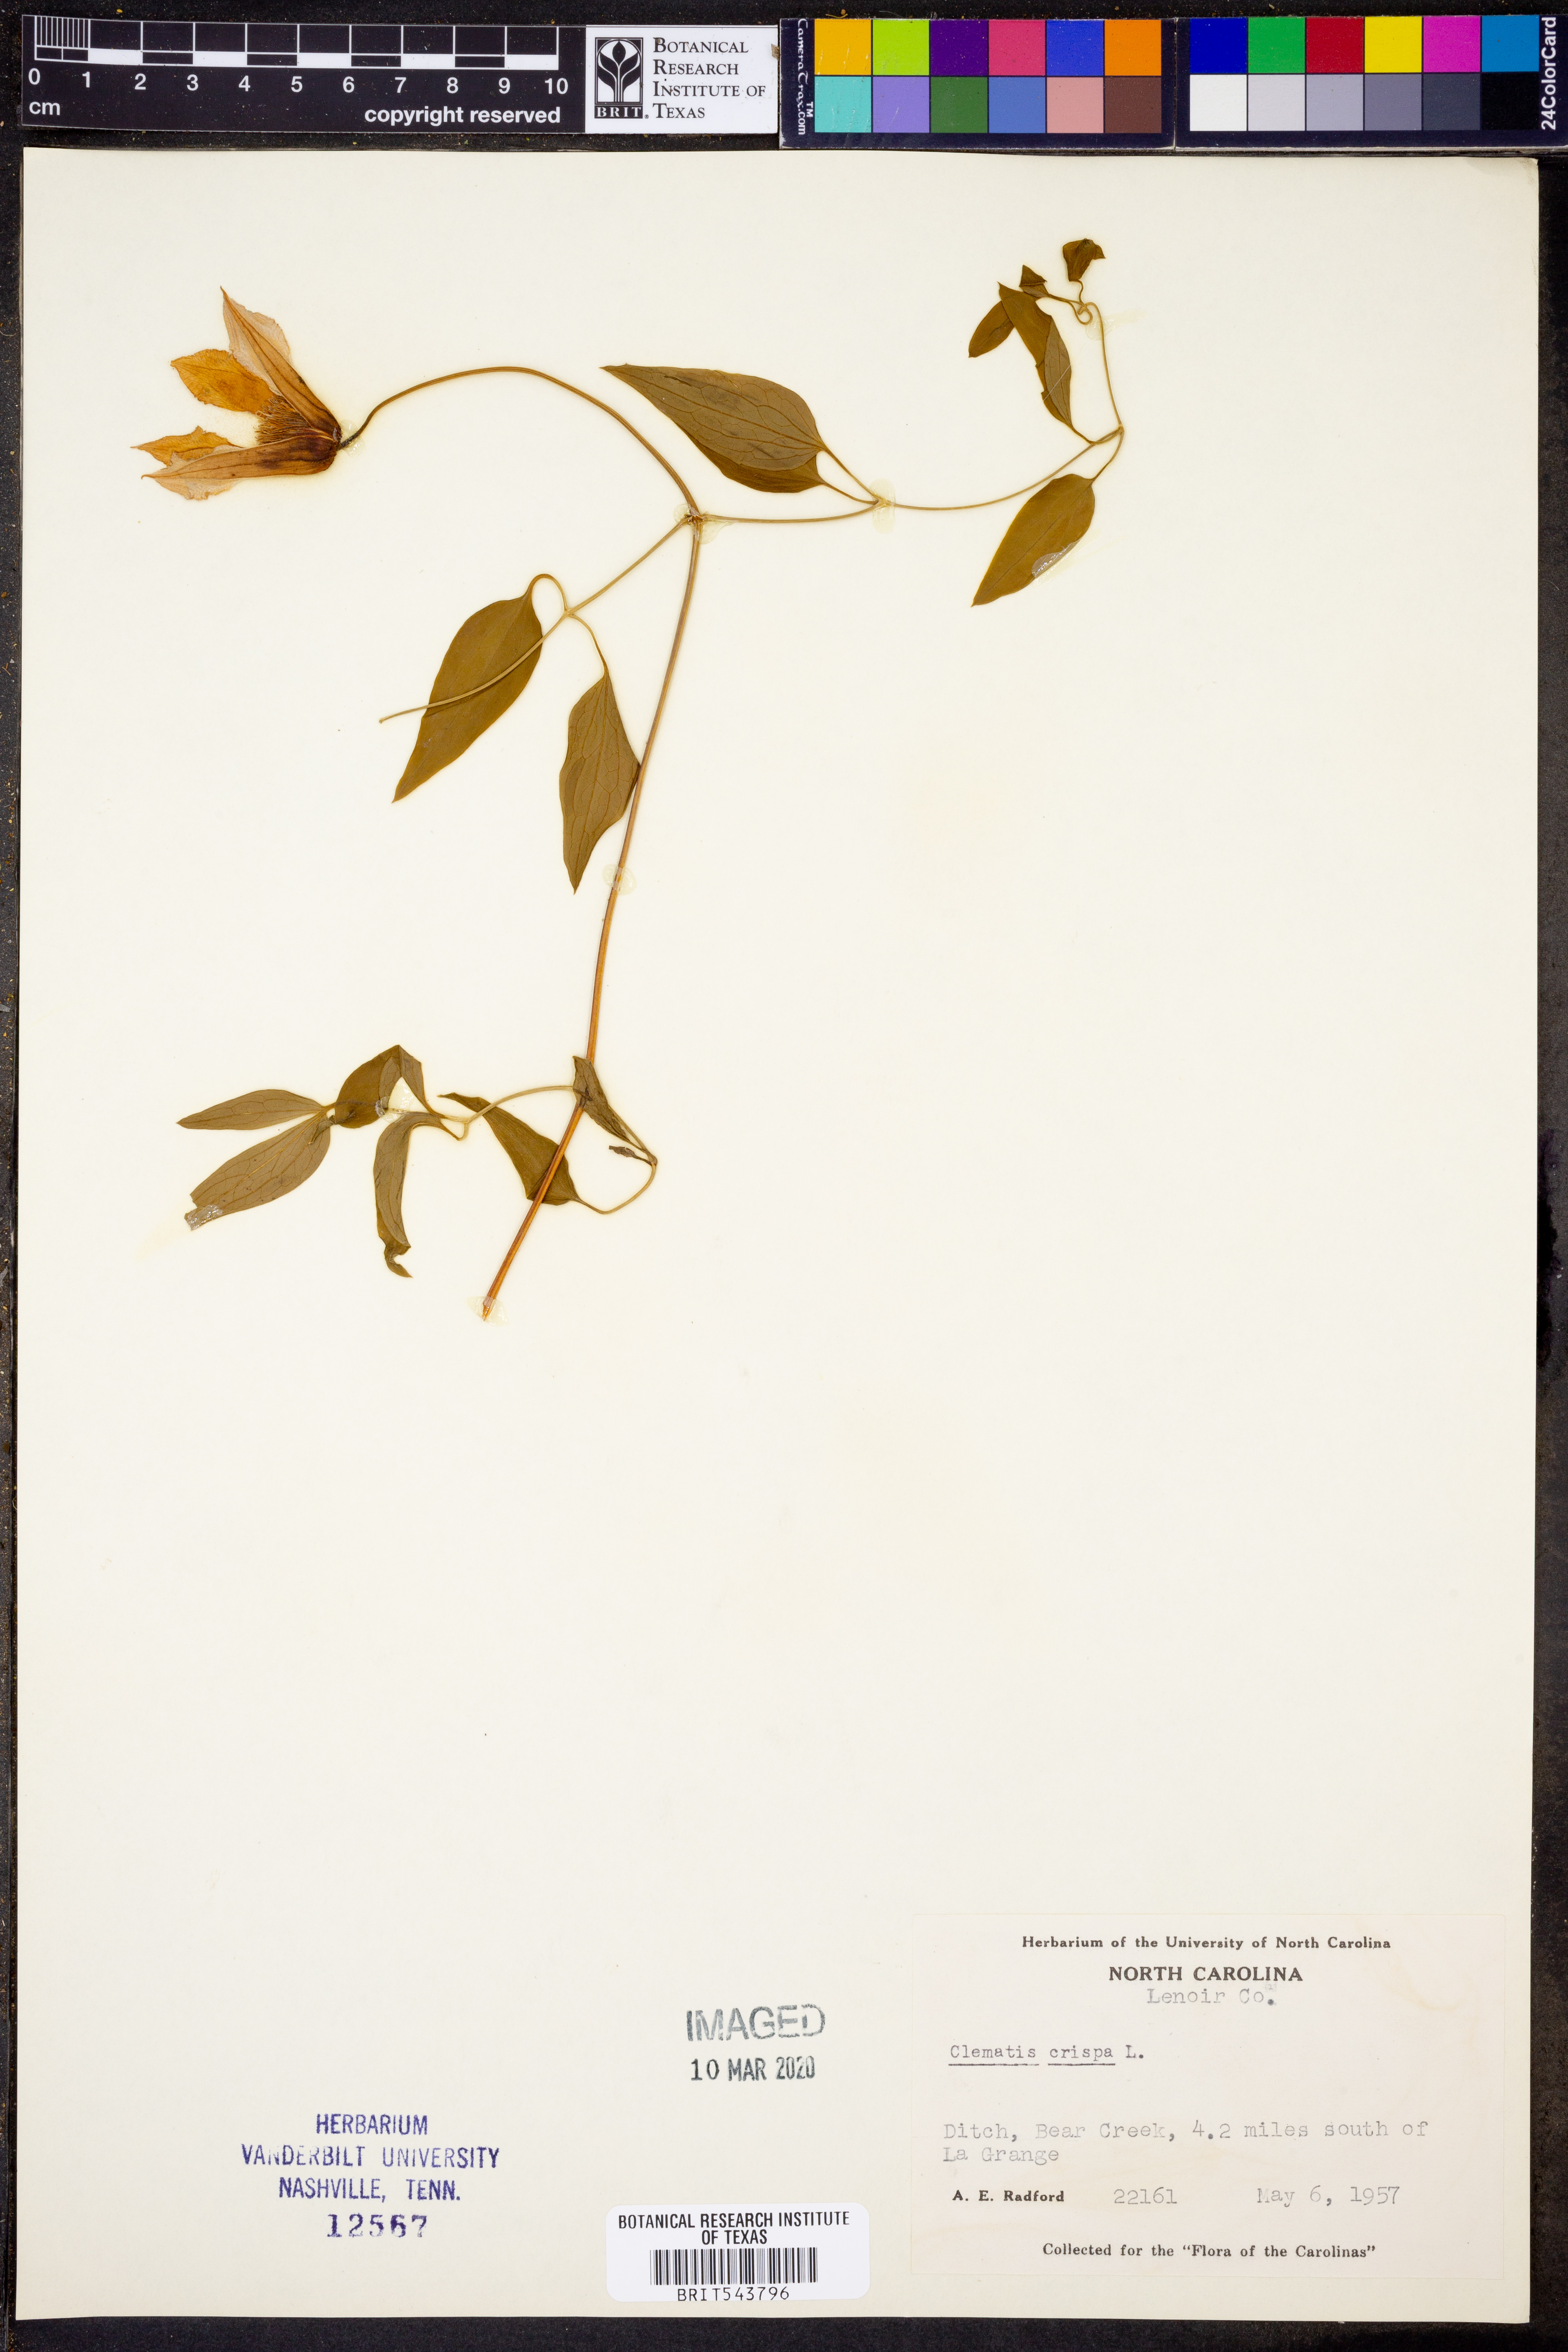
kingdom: Plantae
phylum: Tracheophyta
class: Magnoliopsida
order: Ranunculales
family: Ranunculaceae
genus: Clematis
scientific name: Clematis crispa
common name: Curly clematis
